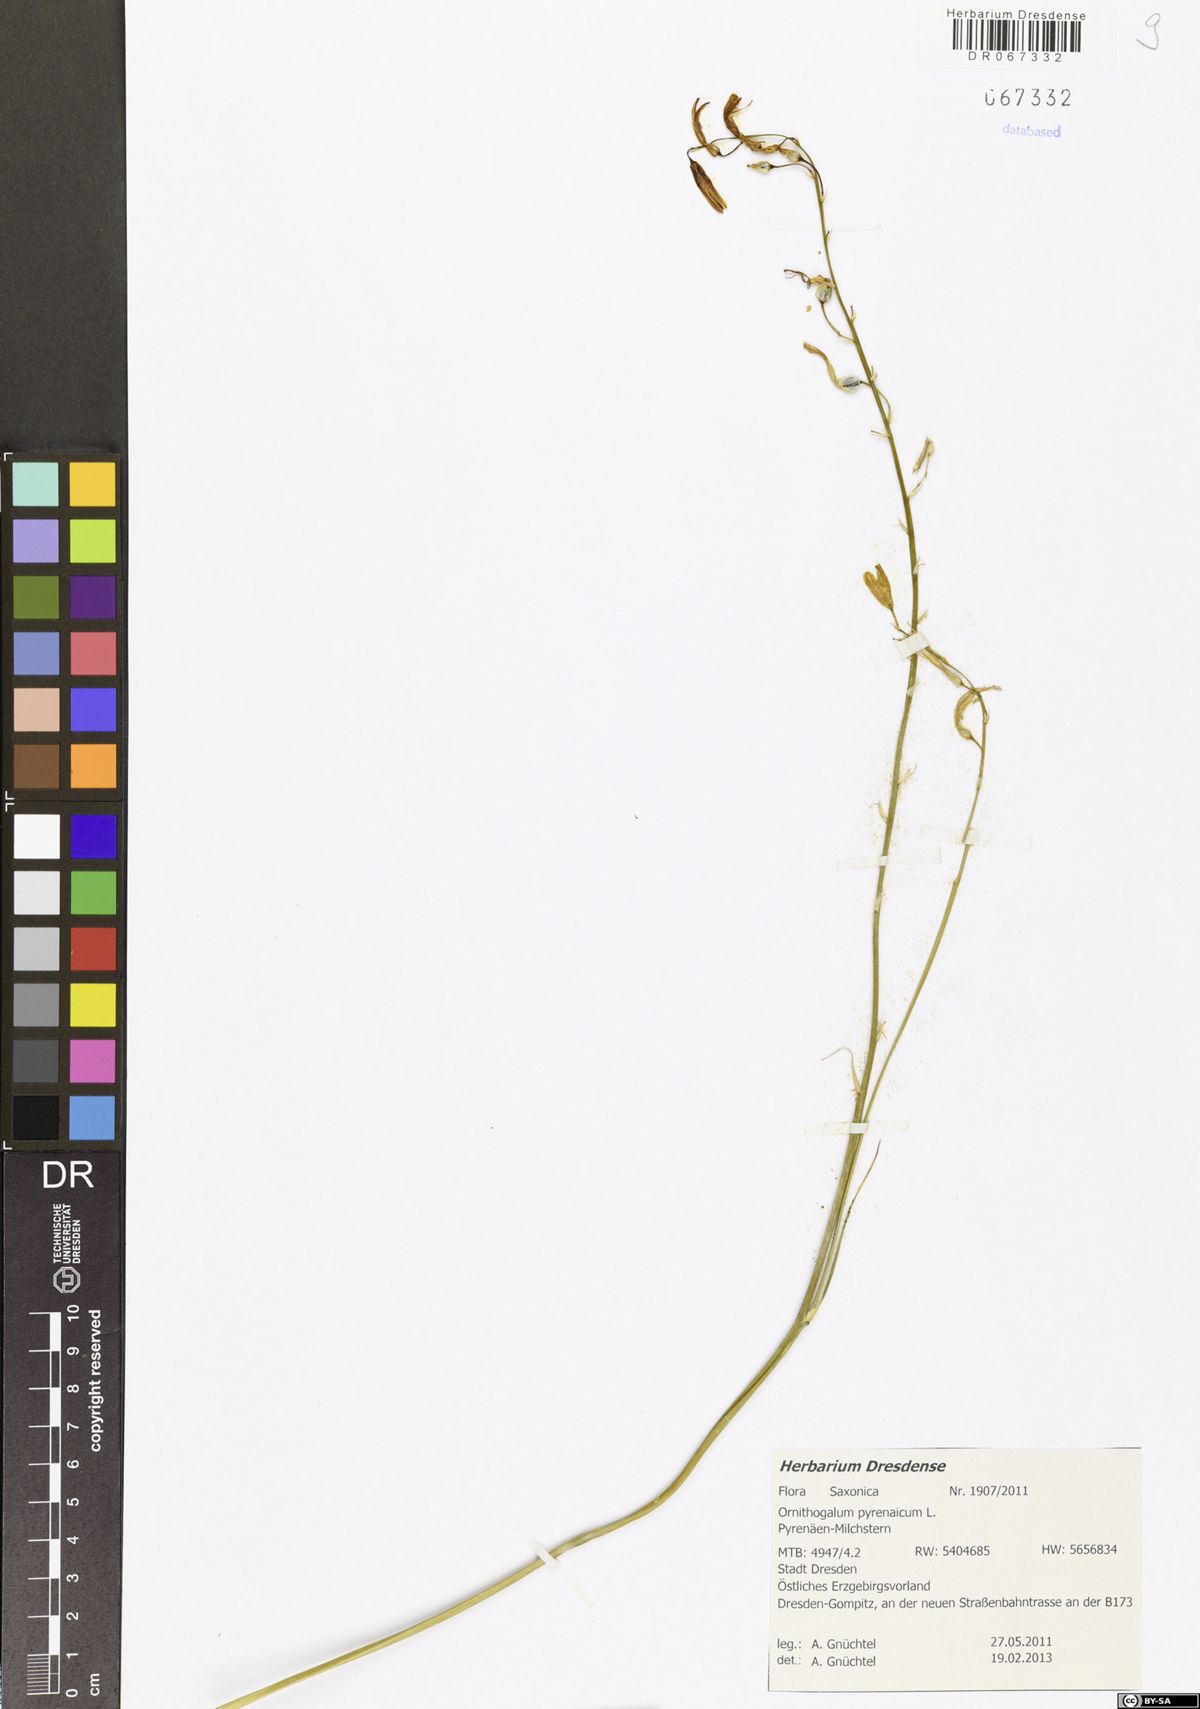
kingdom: Plantae
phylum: Tracheophyta
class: Liliopsida
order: Asparagales
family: Asparagaceae
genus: Ornithogalum
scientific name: Ornithogalum pyrenaicum
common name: Spiked star-of-bethlehem
